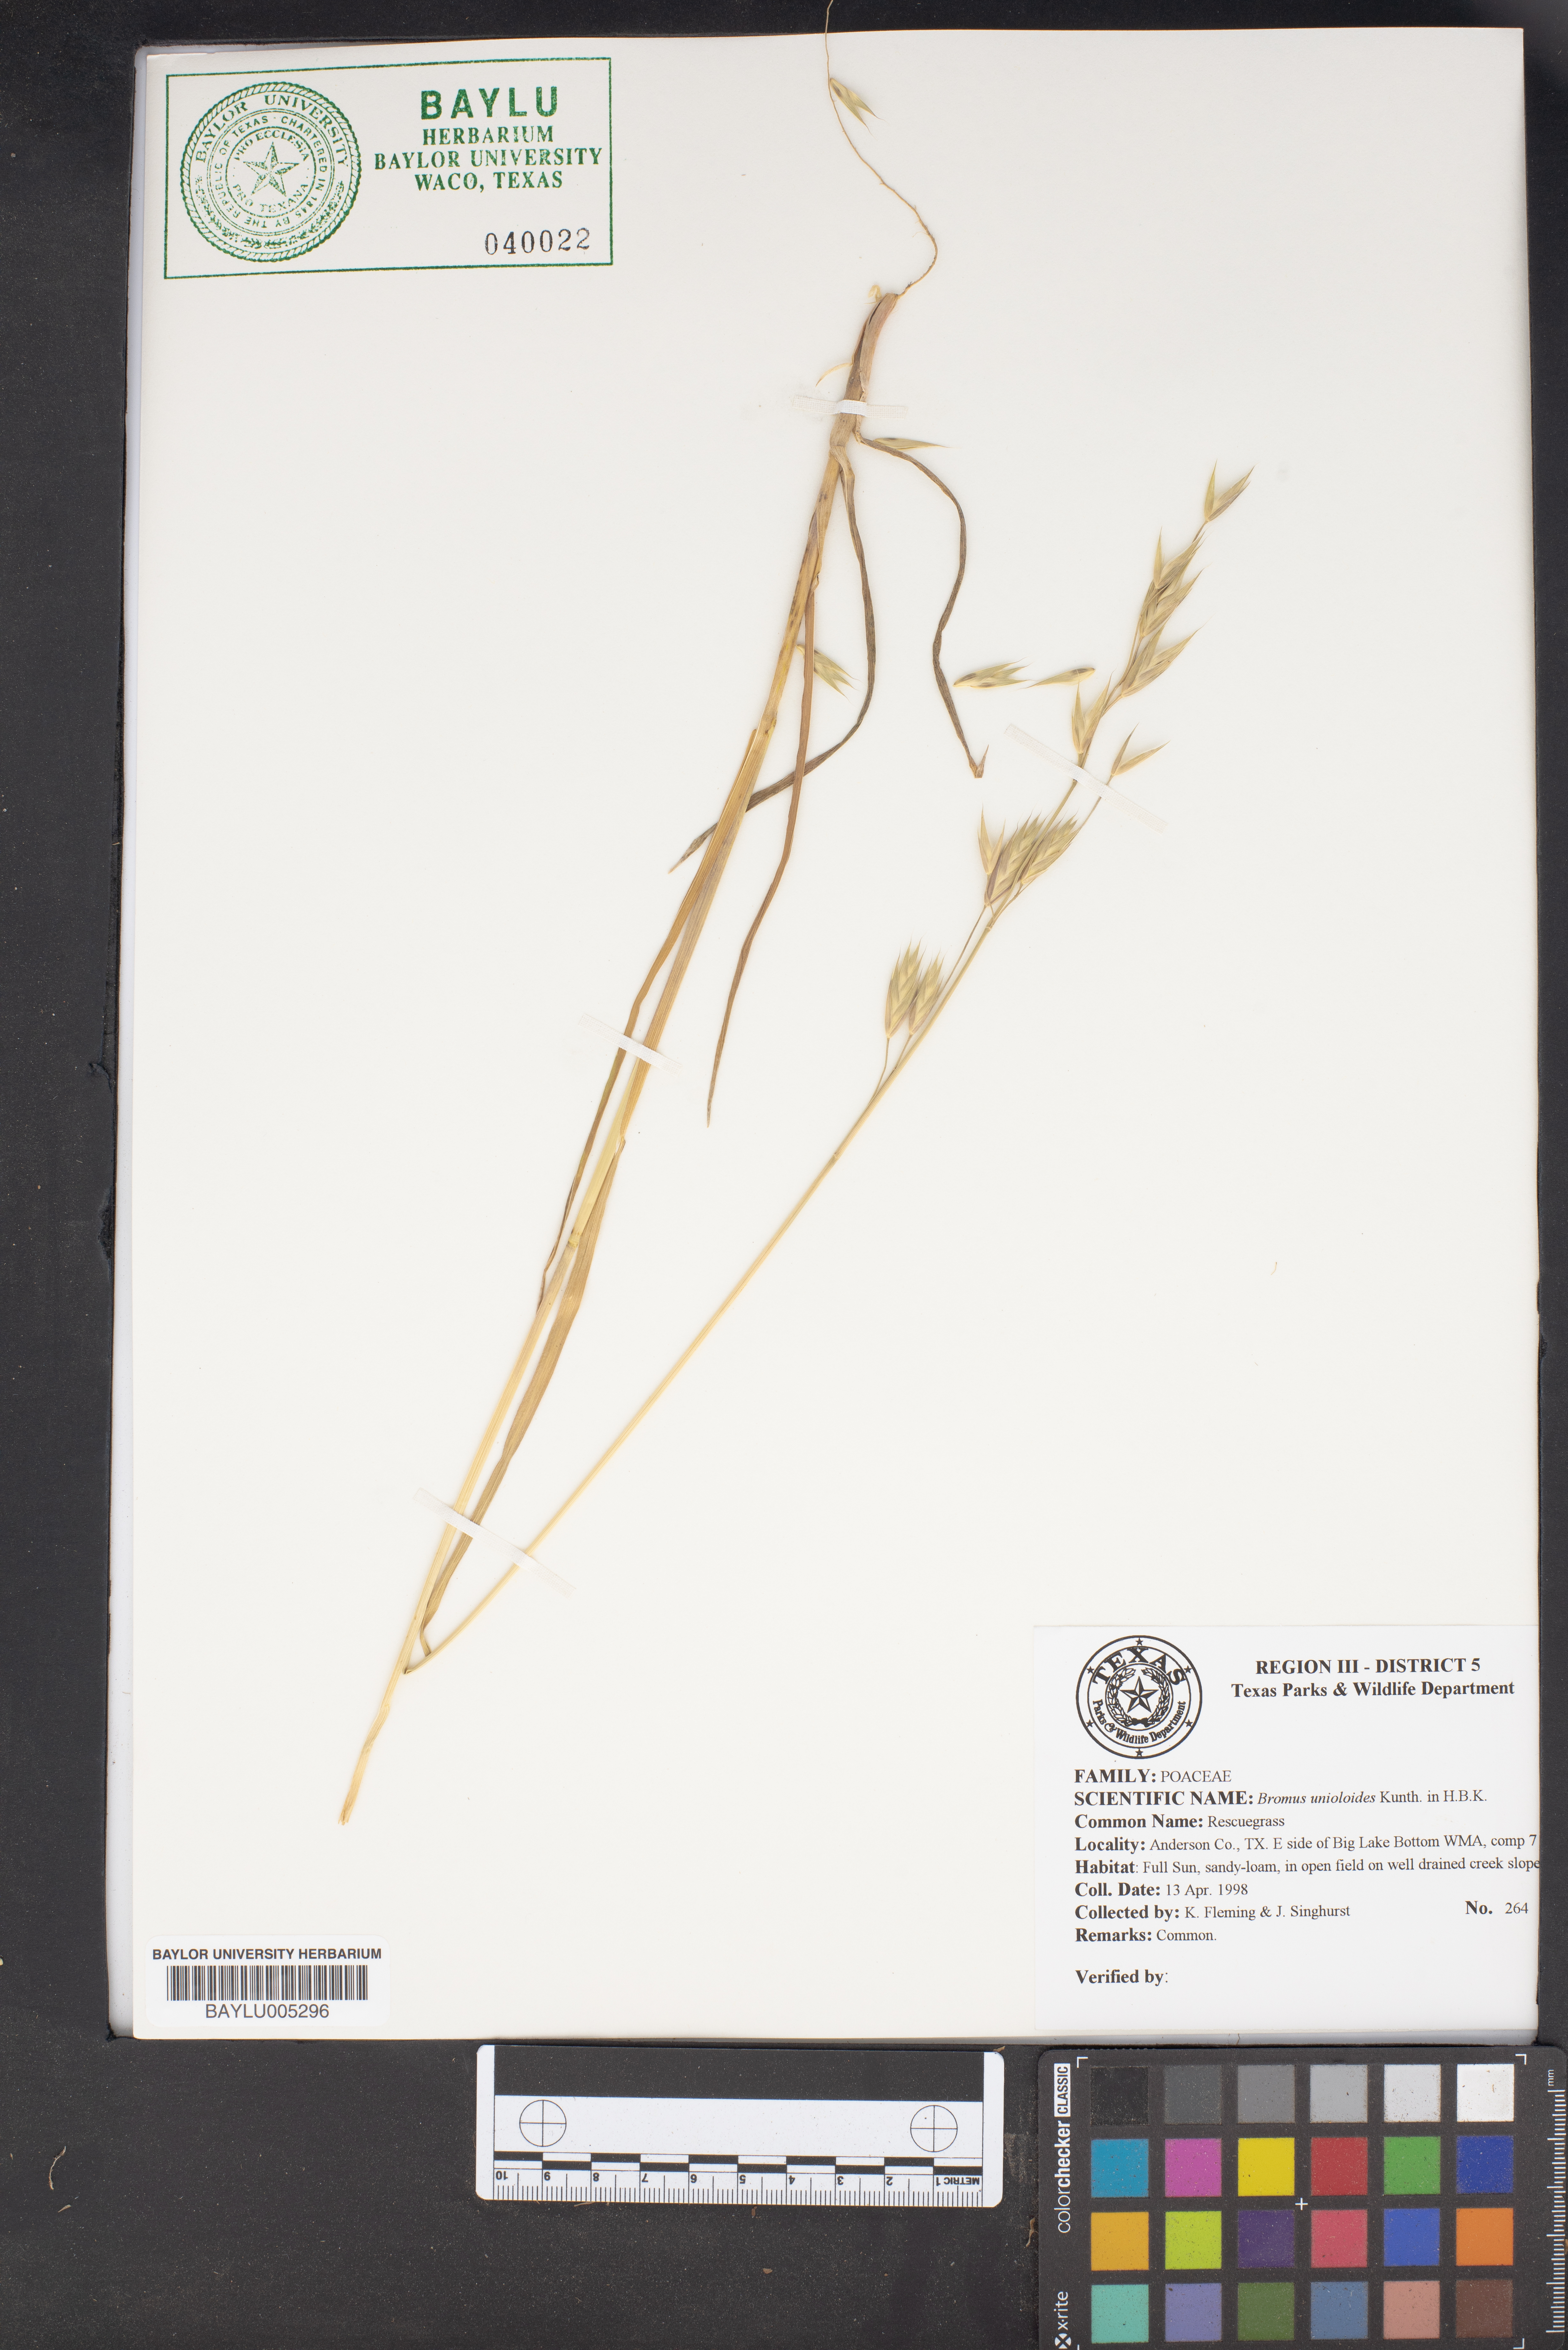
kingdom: Plantae
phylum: Tracheophyta
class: Liliopsida
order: Poales
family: Poaceae
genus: Bromus
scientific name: Bromus catharticus
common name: Rescuegrass
